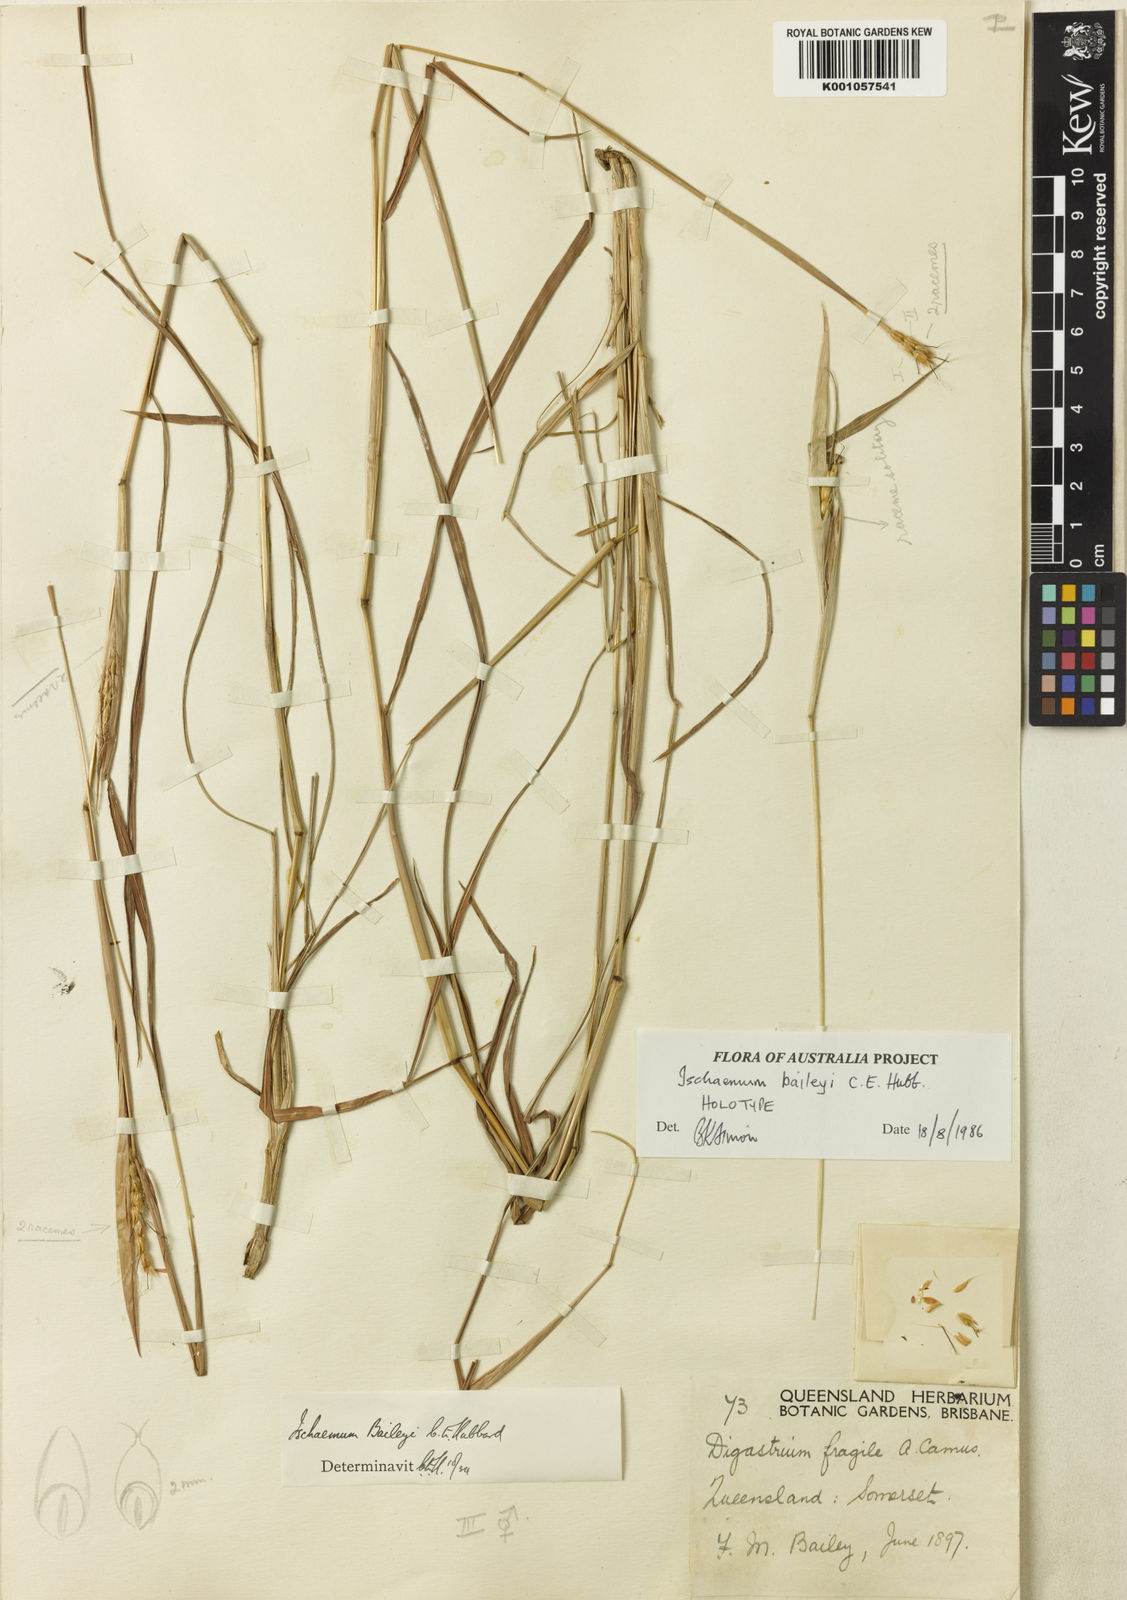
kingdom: Plantae
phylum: Tracheophyta
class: Liliopsida
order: Poales
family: Poaceae
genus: Ischaemum
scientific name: Ischaemum fragile
